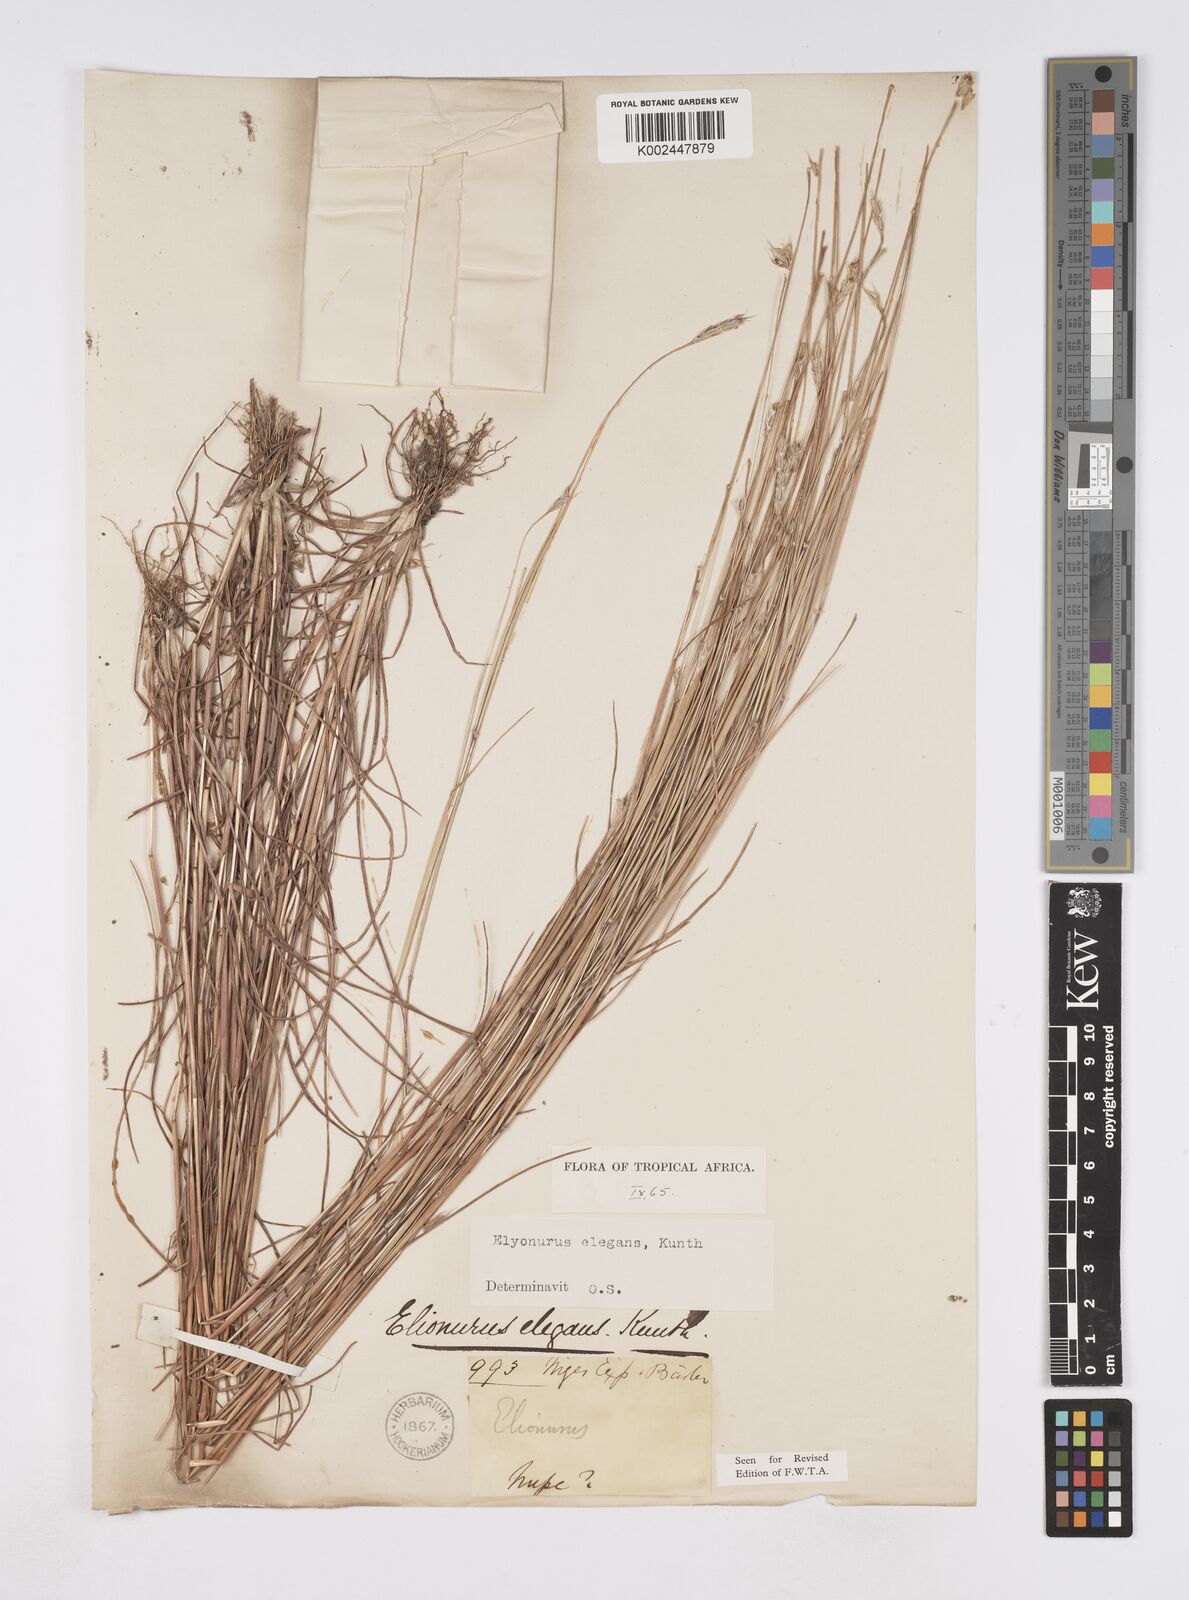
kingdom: Plantae
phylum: Tracheophyta
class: Liliopsida
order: Poales
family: Poaceae
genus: Elionurus
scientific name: Elionurus elegans
